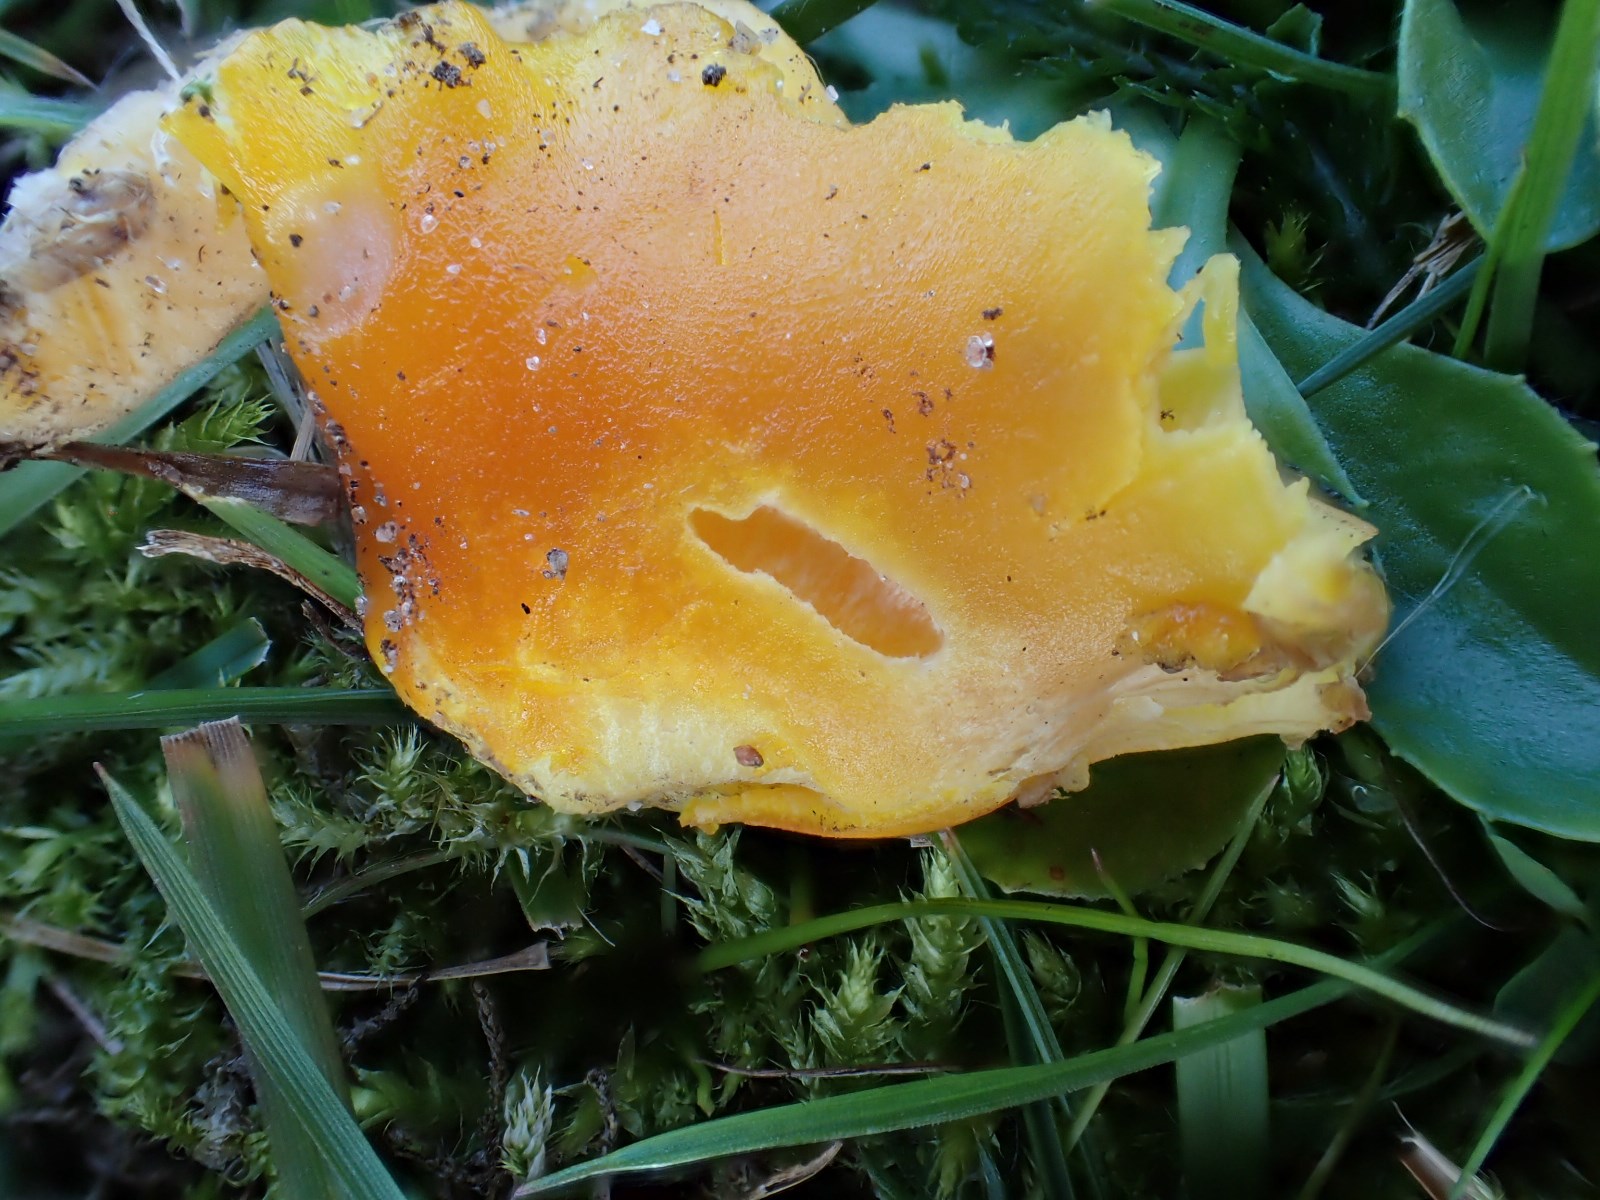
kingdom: Fungi
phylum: Basidiomycota
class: Agaricomycetes
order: Agaricales
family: Hygrophoraceae
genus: Hygrocybe
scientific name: Hygrocybe chlorophana
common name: gul vokshat
